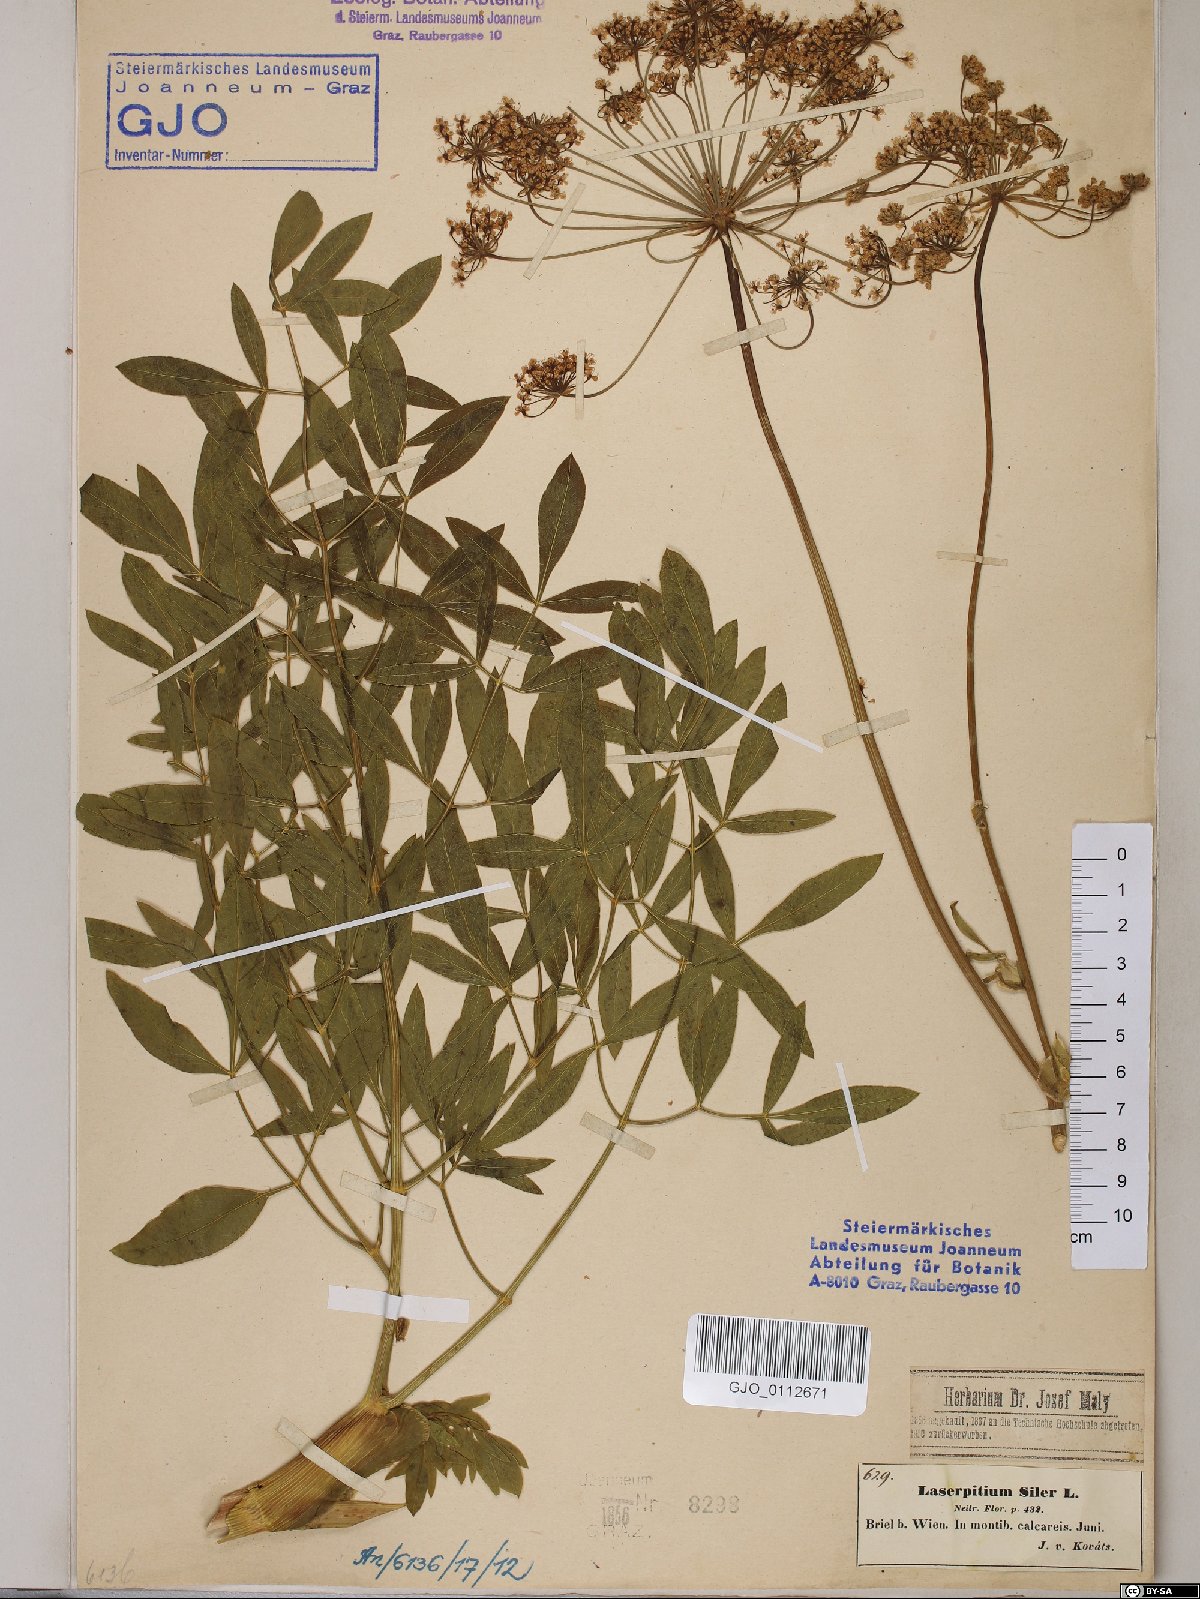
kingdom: Plantae
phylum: Tracheophyta
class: Magnoliopsida
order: Apiales
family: Apiaceae
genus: Siler
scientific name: Siler montanum
